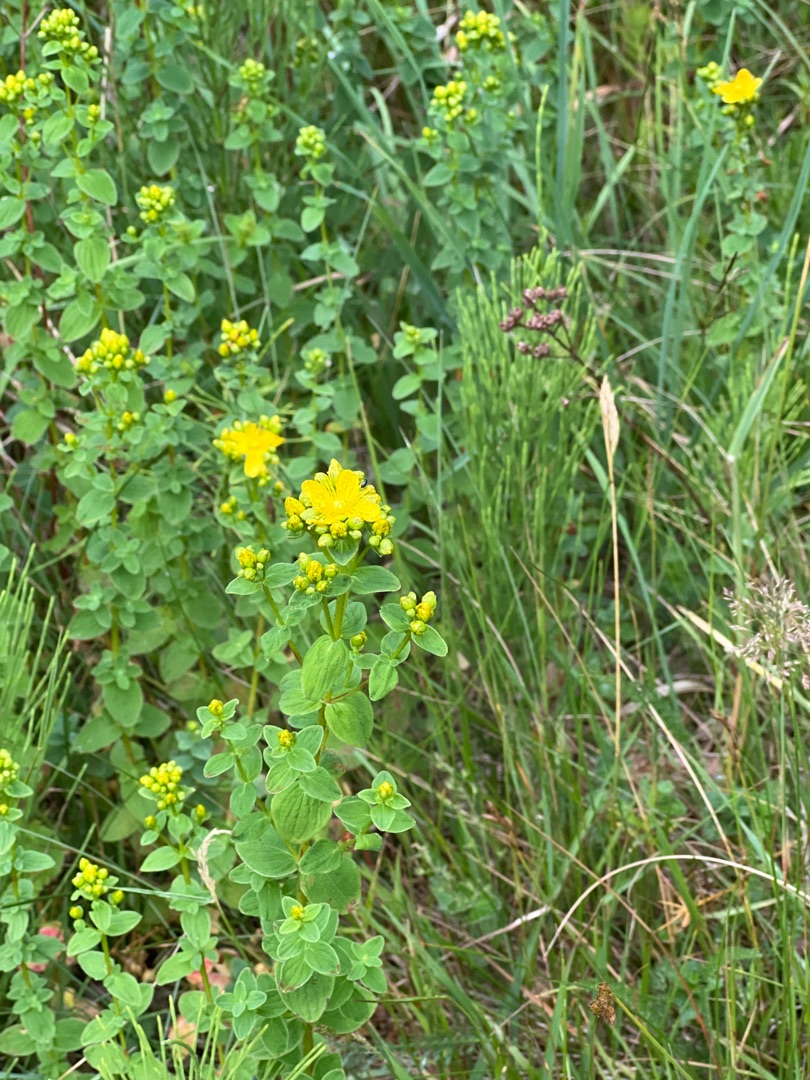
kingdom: Plantae
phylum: Tracheophyta
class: Magnoliopsida
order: Malpighiales
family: Hypericaceae
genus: Hypericum
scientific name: Hypericum maculatum
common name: Kantet perikon
